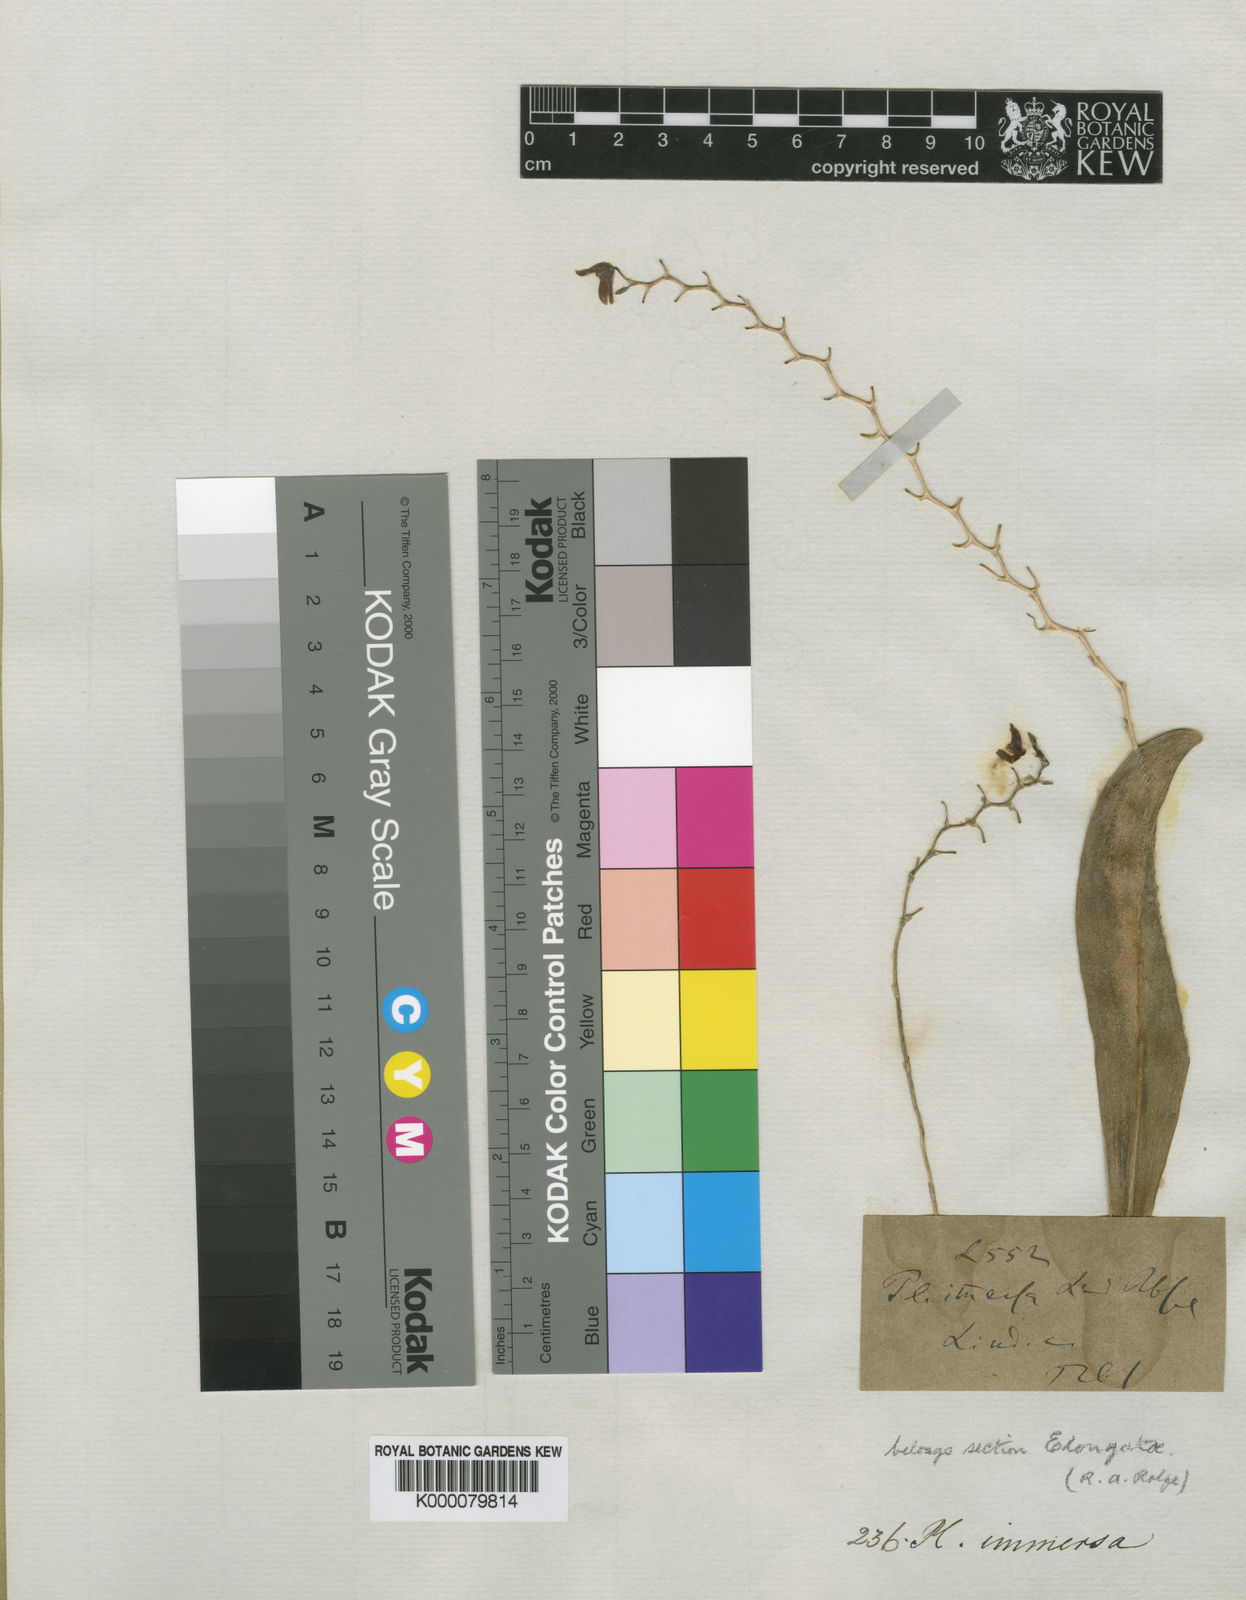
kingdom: Plantae
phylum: Tracheophyta
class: Liliopsida
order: Asparagales
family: Orchidaceae
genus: Stelis
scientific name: Stelis immersa
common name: Sunken pleurothallis
